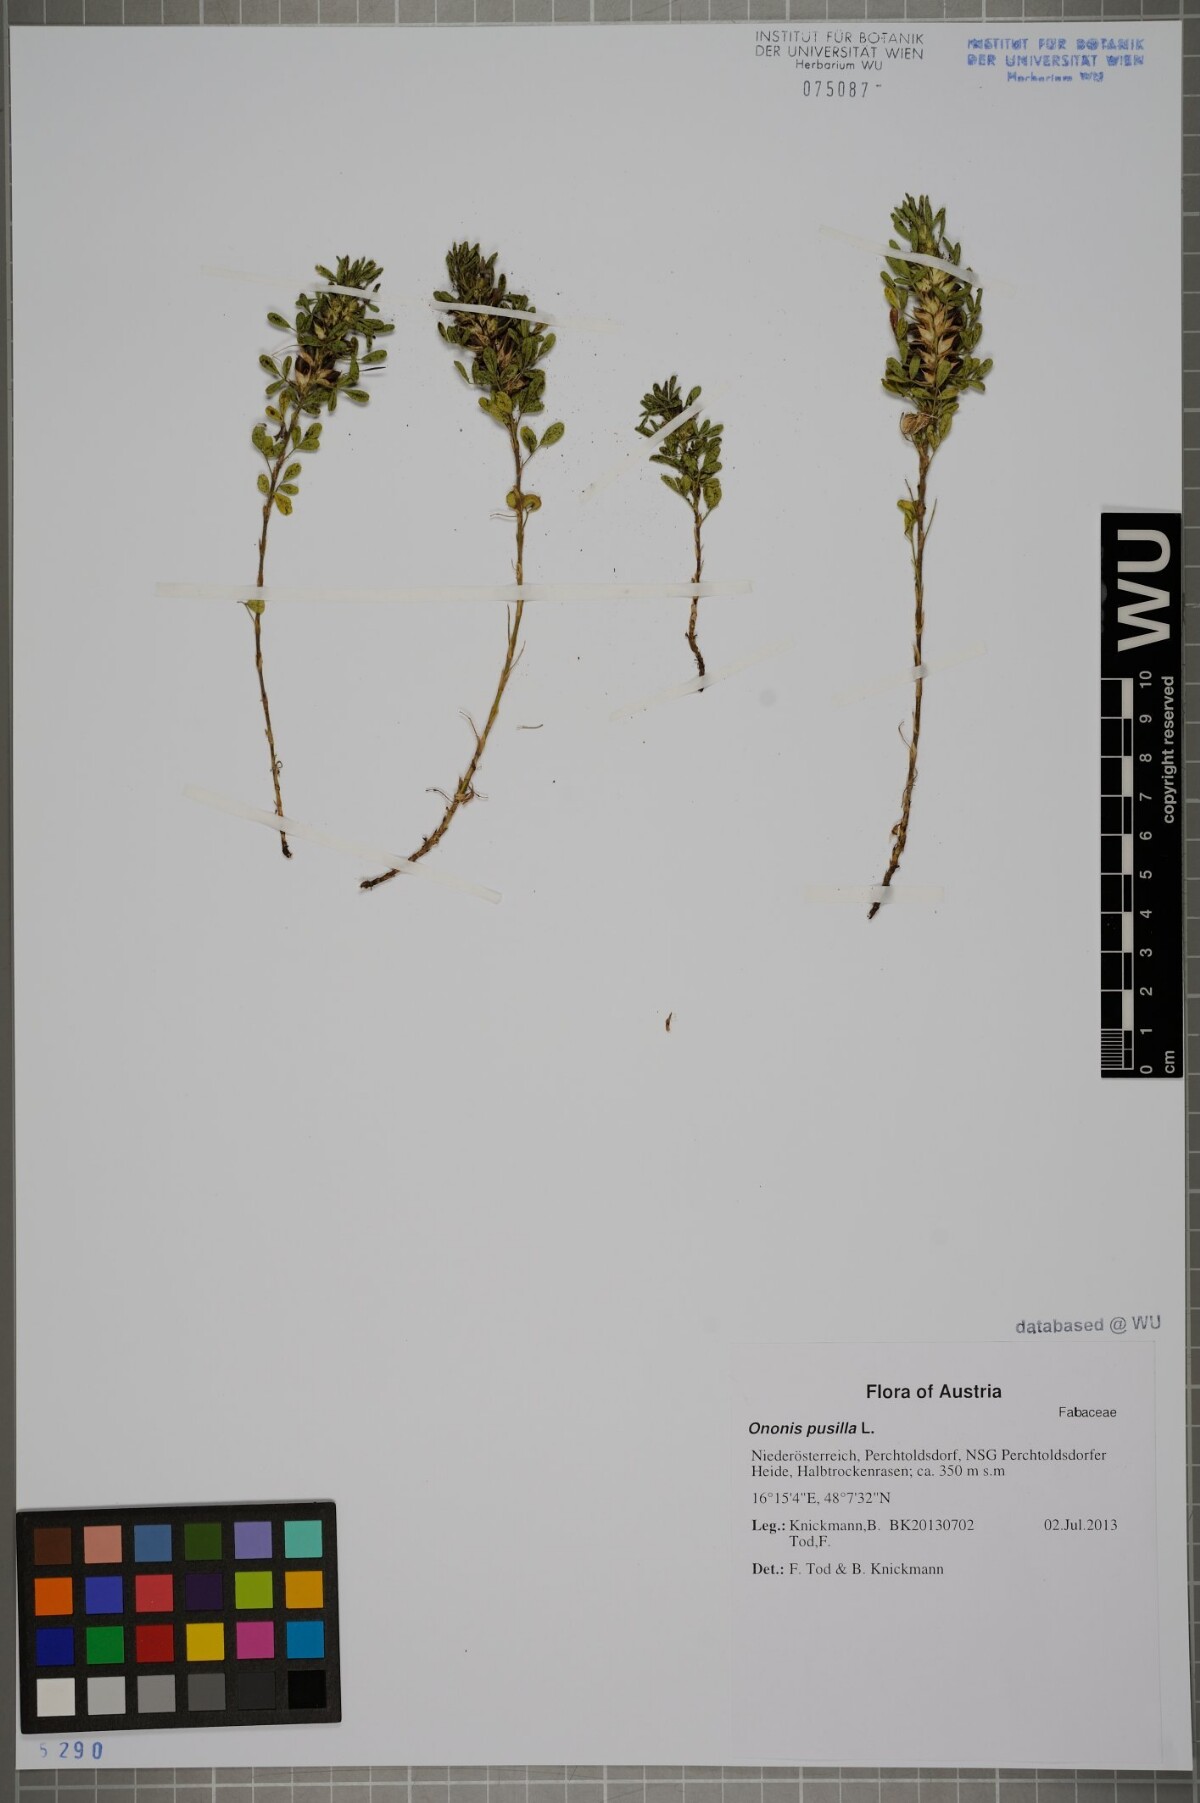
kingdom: Plantae
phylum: Tracheophyta
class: Magnoliopsida
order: Fabales
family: Fabaceae
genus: Ononis
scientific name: Ononis pusilla
